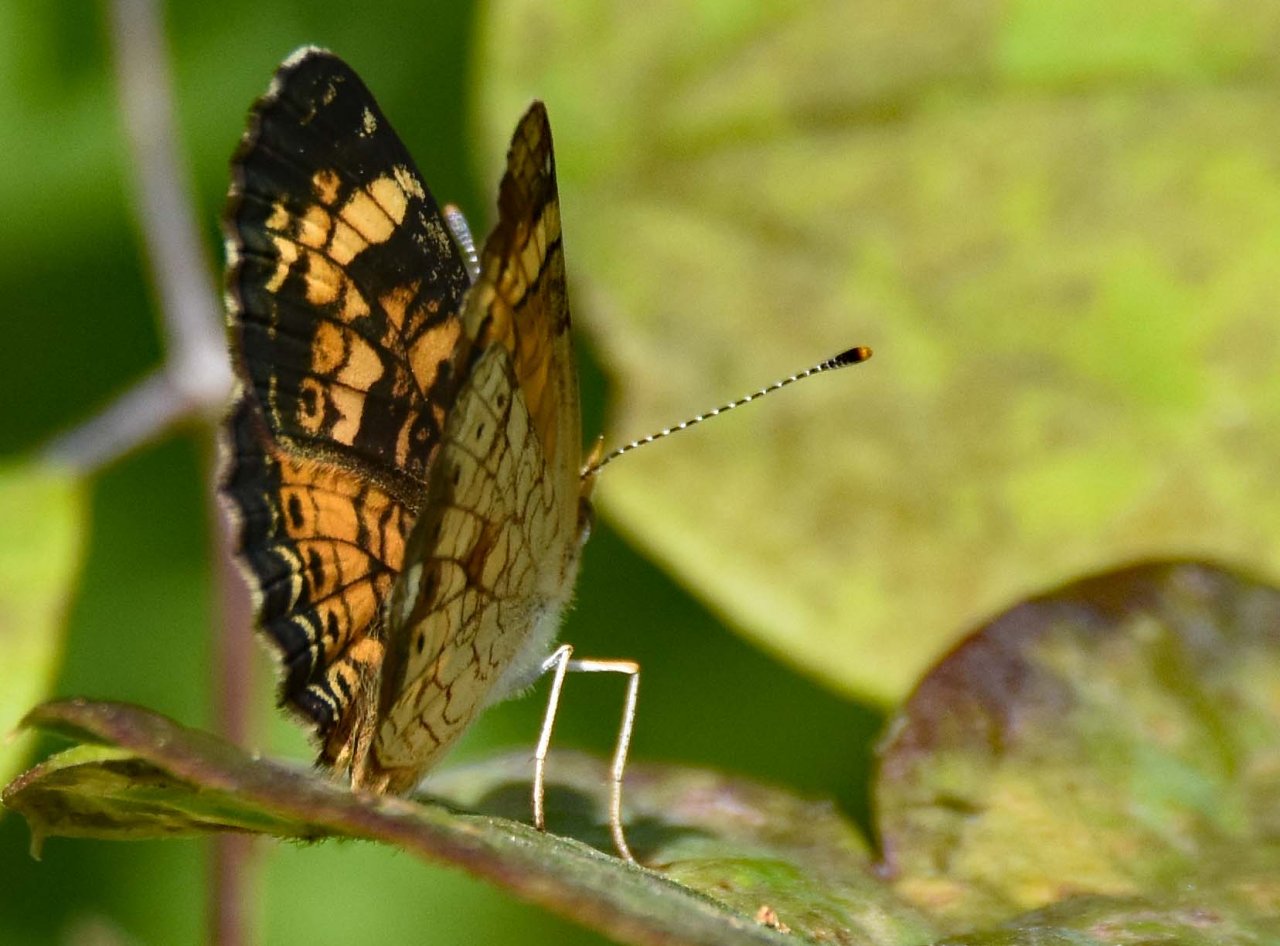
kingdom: Animalia
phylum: Arthropoda
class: Insecta
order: Lepidoptera
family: Nymphalidae
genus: Phyciodes
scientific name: Phyciodes tharos
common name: Pearl Crescent
